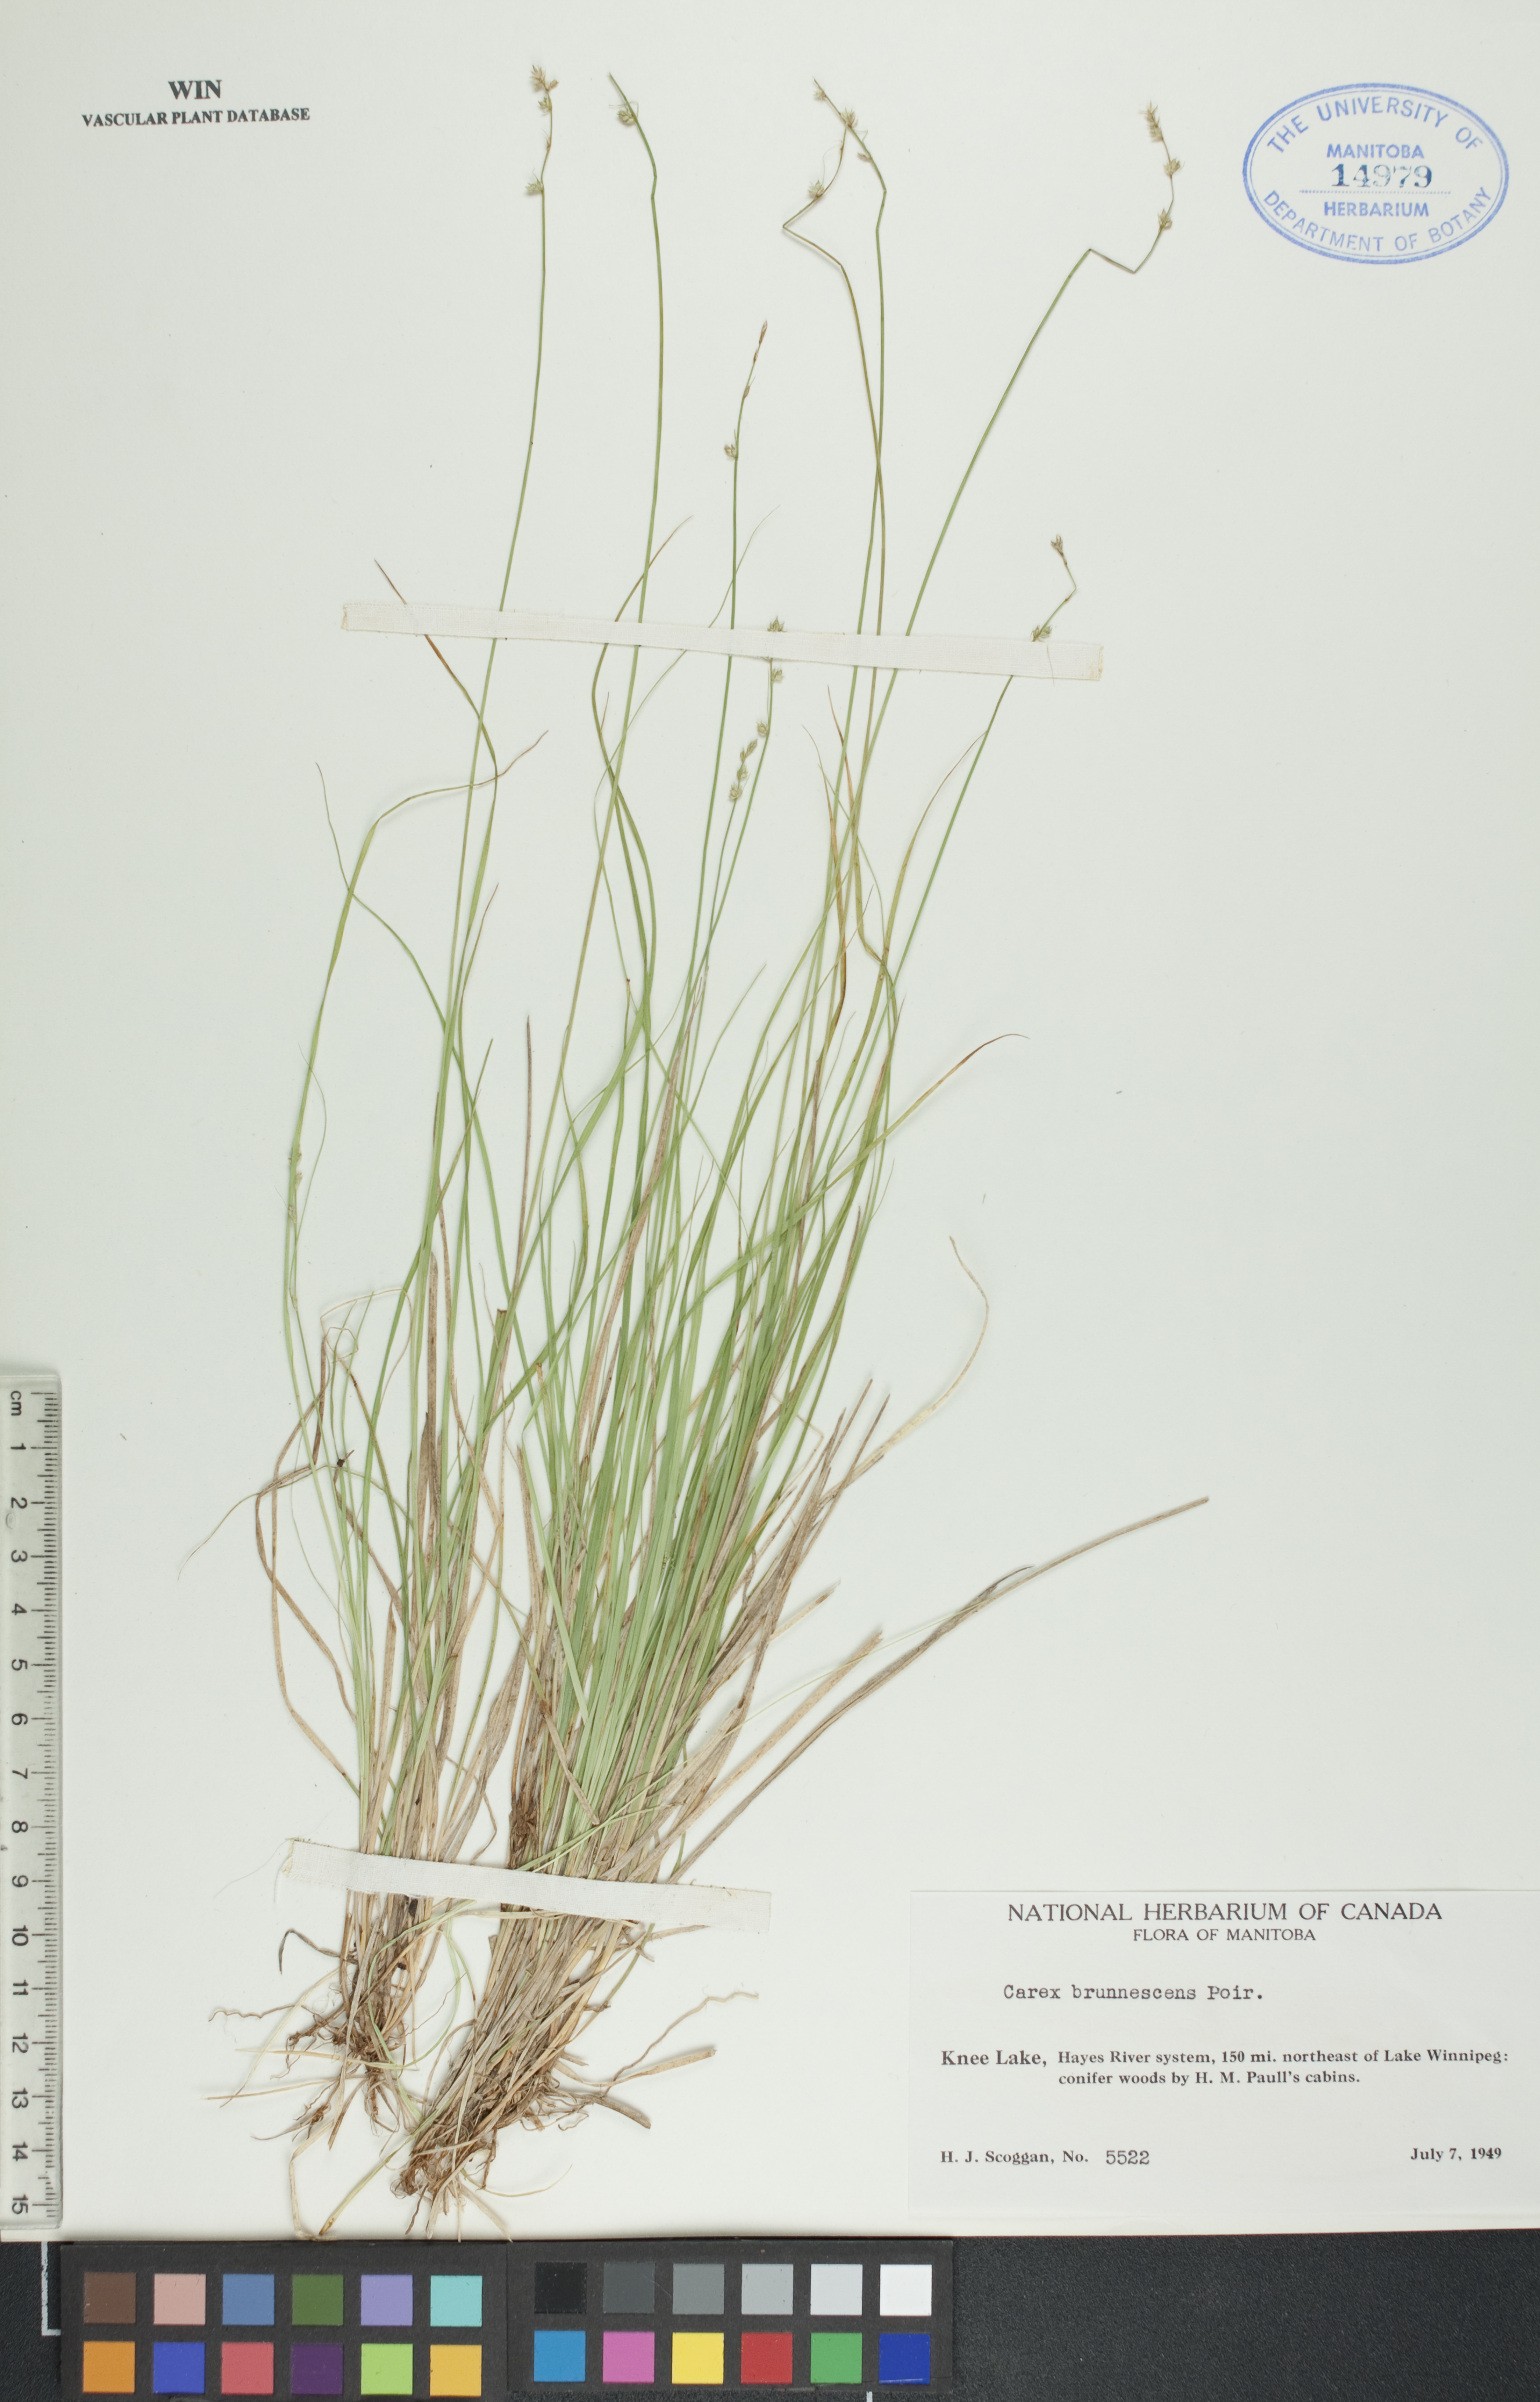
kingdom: Plantae
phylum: Tracheophyta
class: Liliopsida
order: Poales
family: Cyperaceae
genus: Carex
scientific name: Carex brunnescens
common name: Brown sedge
